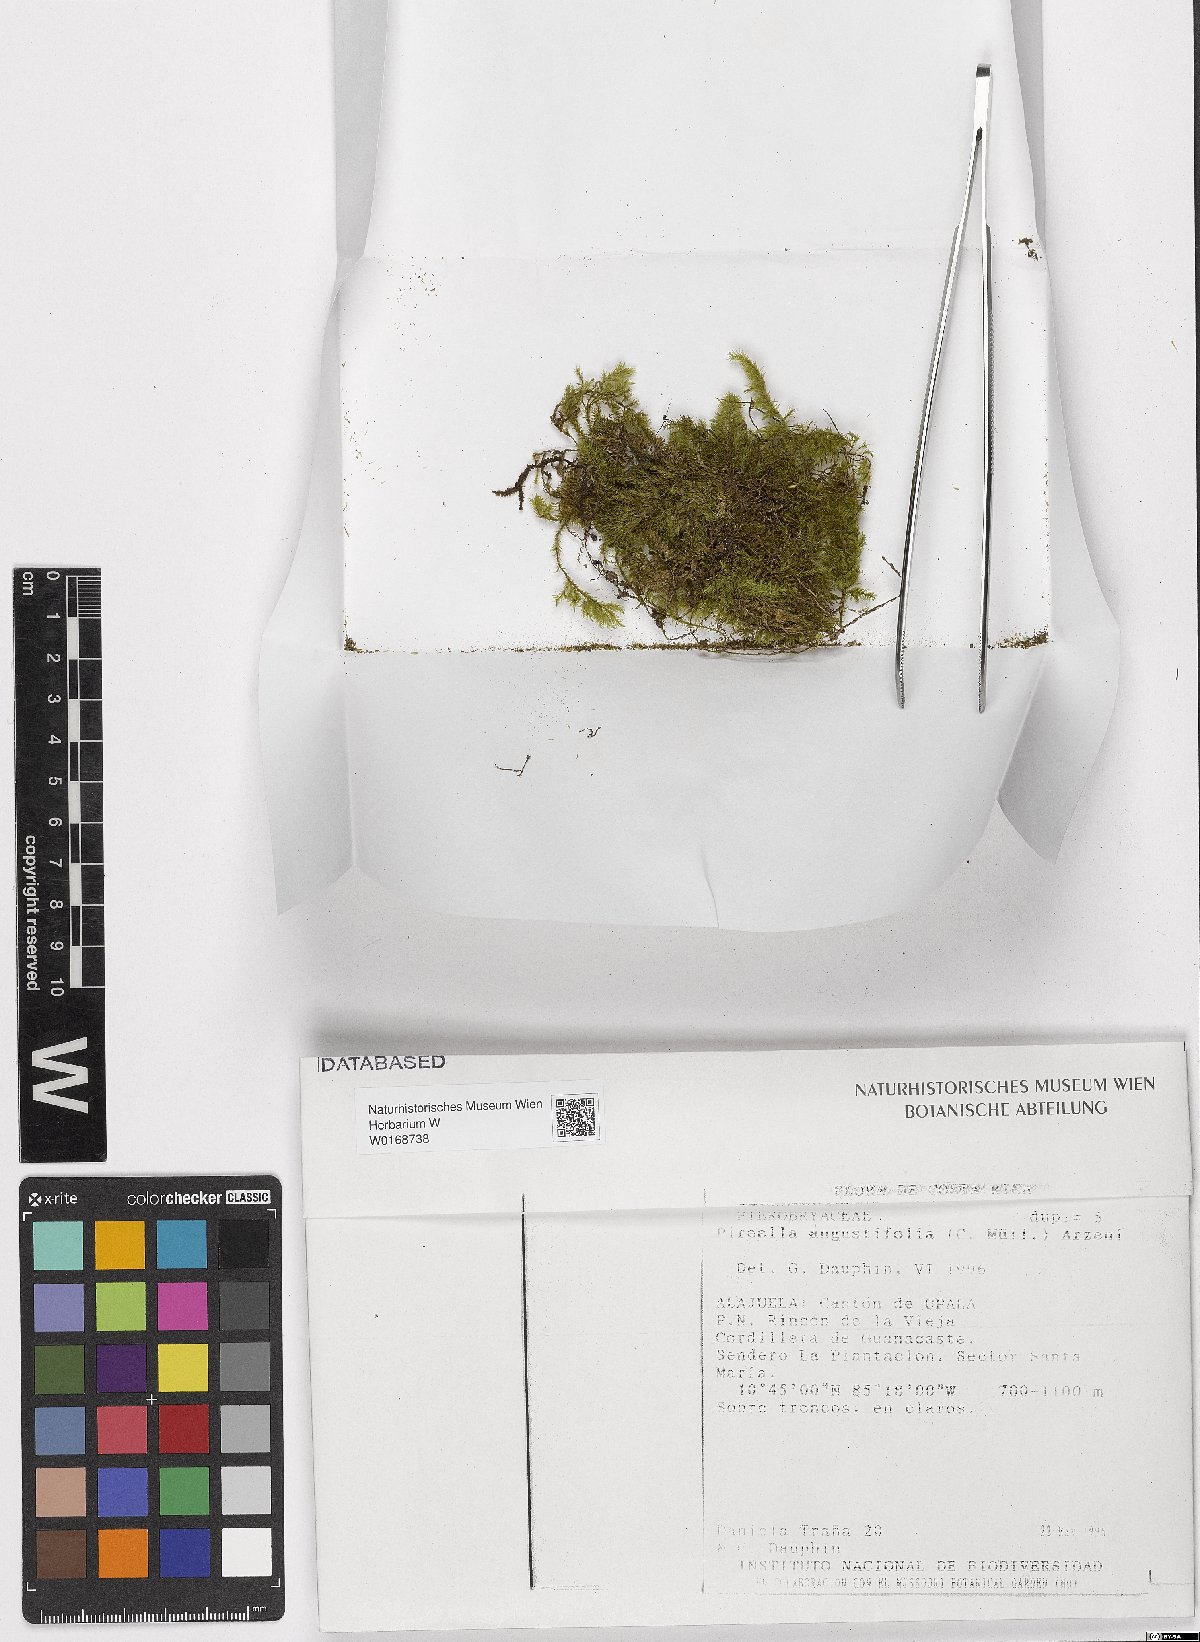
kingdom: Plantae
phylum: Bryophyta
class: Bryopsida
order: Hypnales
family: Pterobryaceae
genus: Pireella
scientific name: Pireella angustifolia
